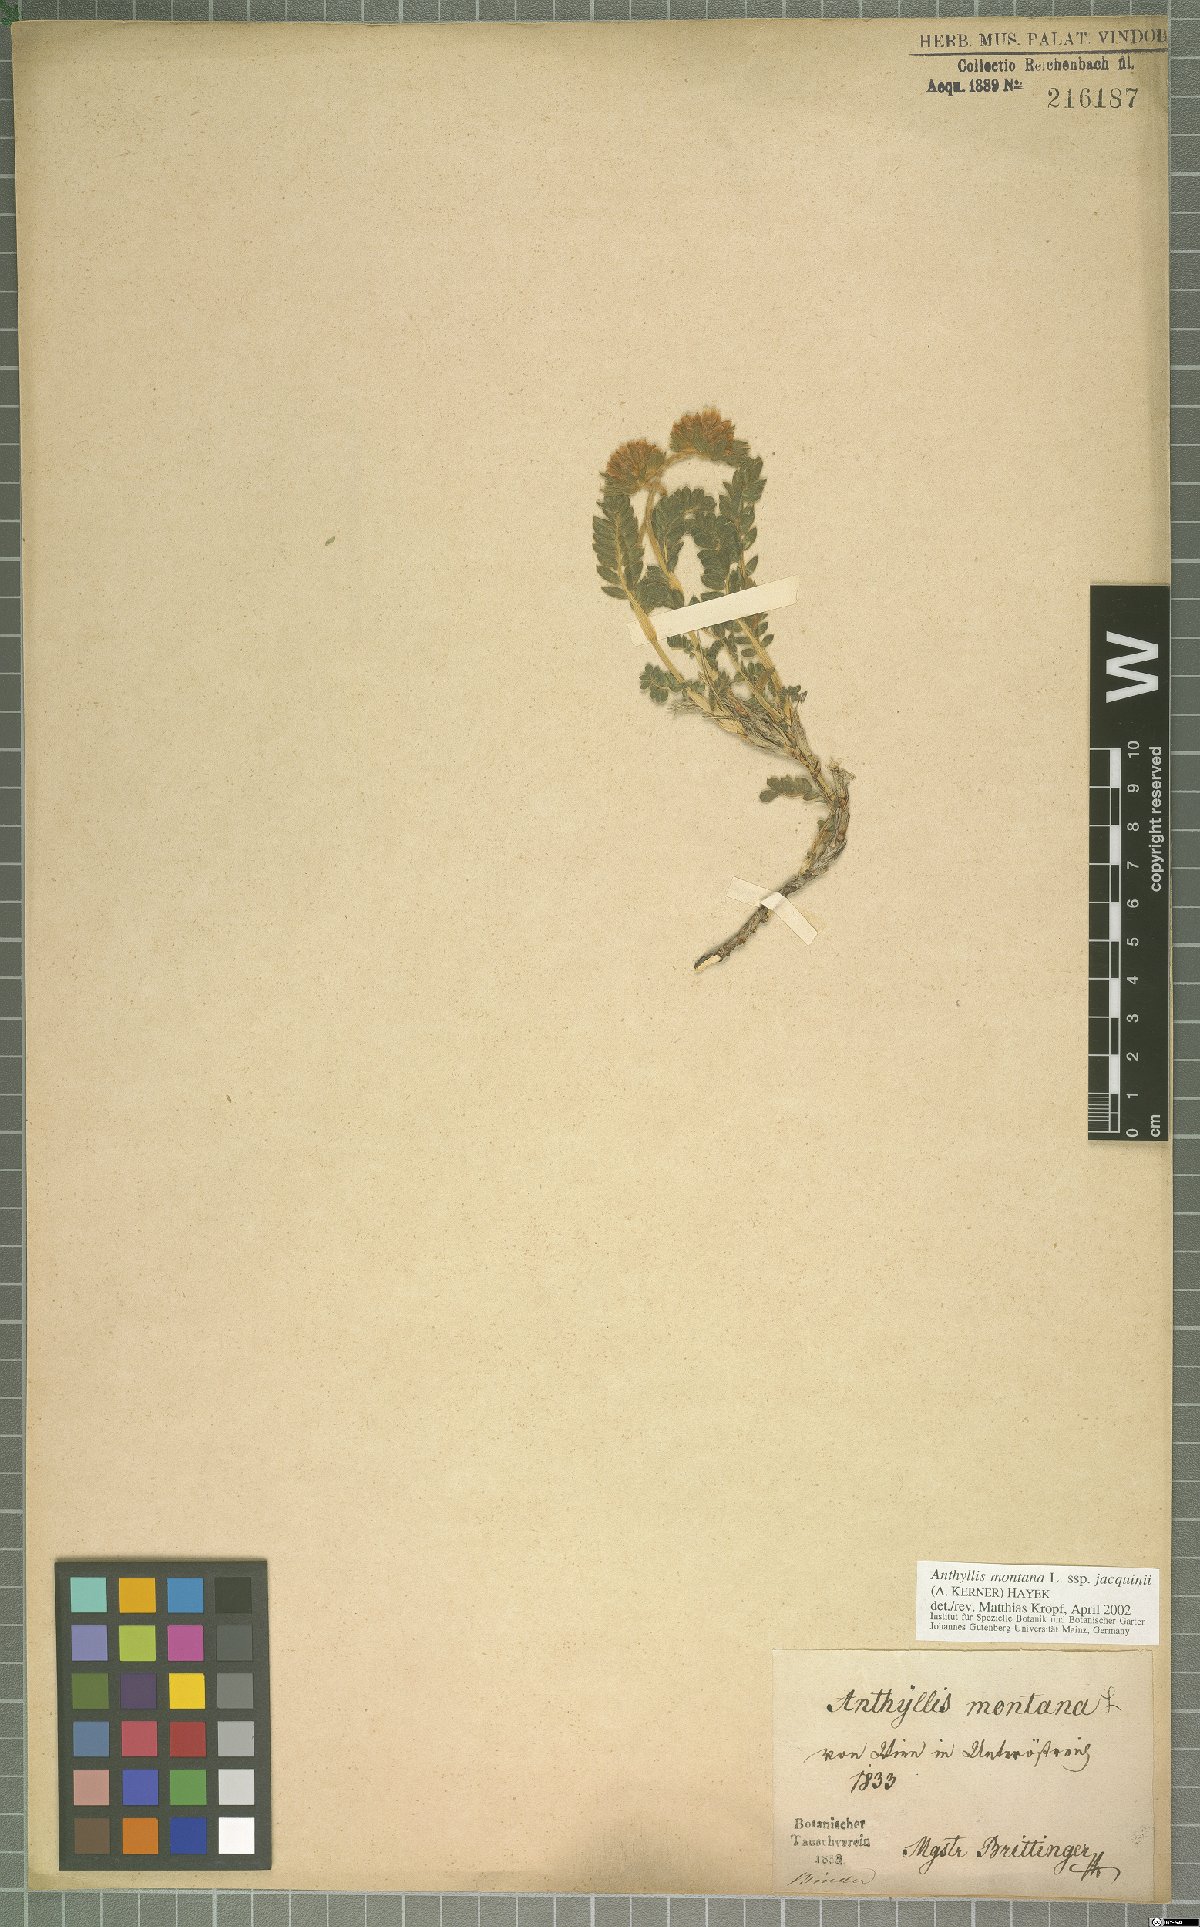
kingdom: Plantae
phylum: Tracheophyta
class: Magnoliopsida
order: Fabales
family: Fabaceae
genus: Anthyllis
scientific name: Anthyllis montana
